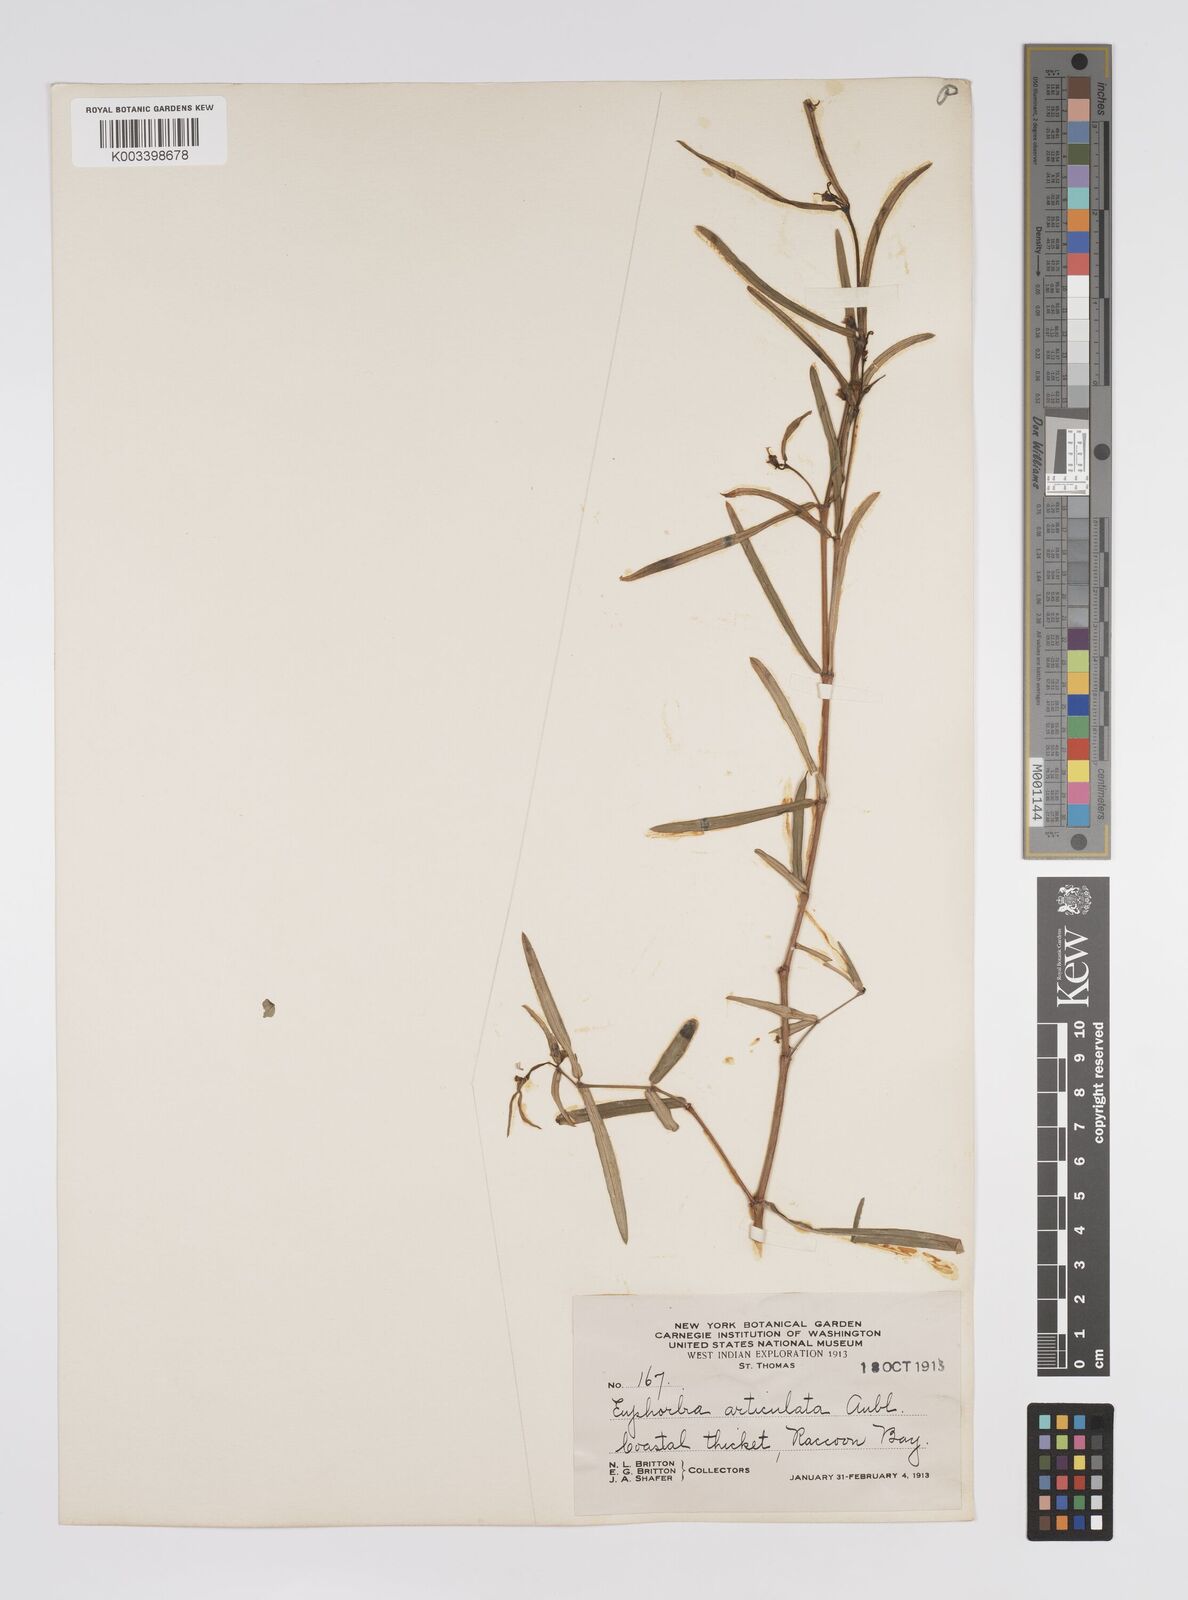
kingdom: Plantae
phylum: Tracheophyta
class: Magnoliopsida
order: Malpighiales
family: Euphorbiaceae
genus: Euphorbia
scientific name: Euphorbia articulata
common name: Jointed sandmat
